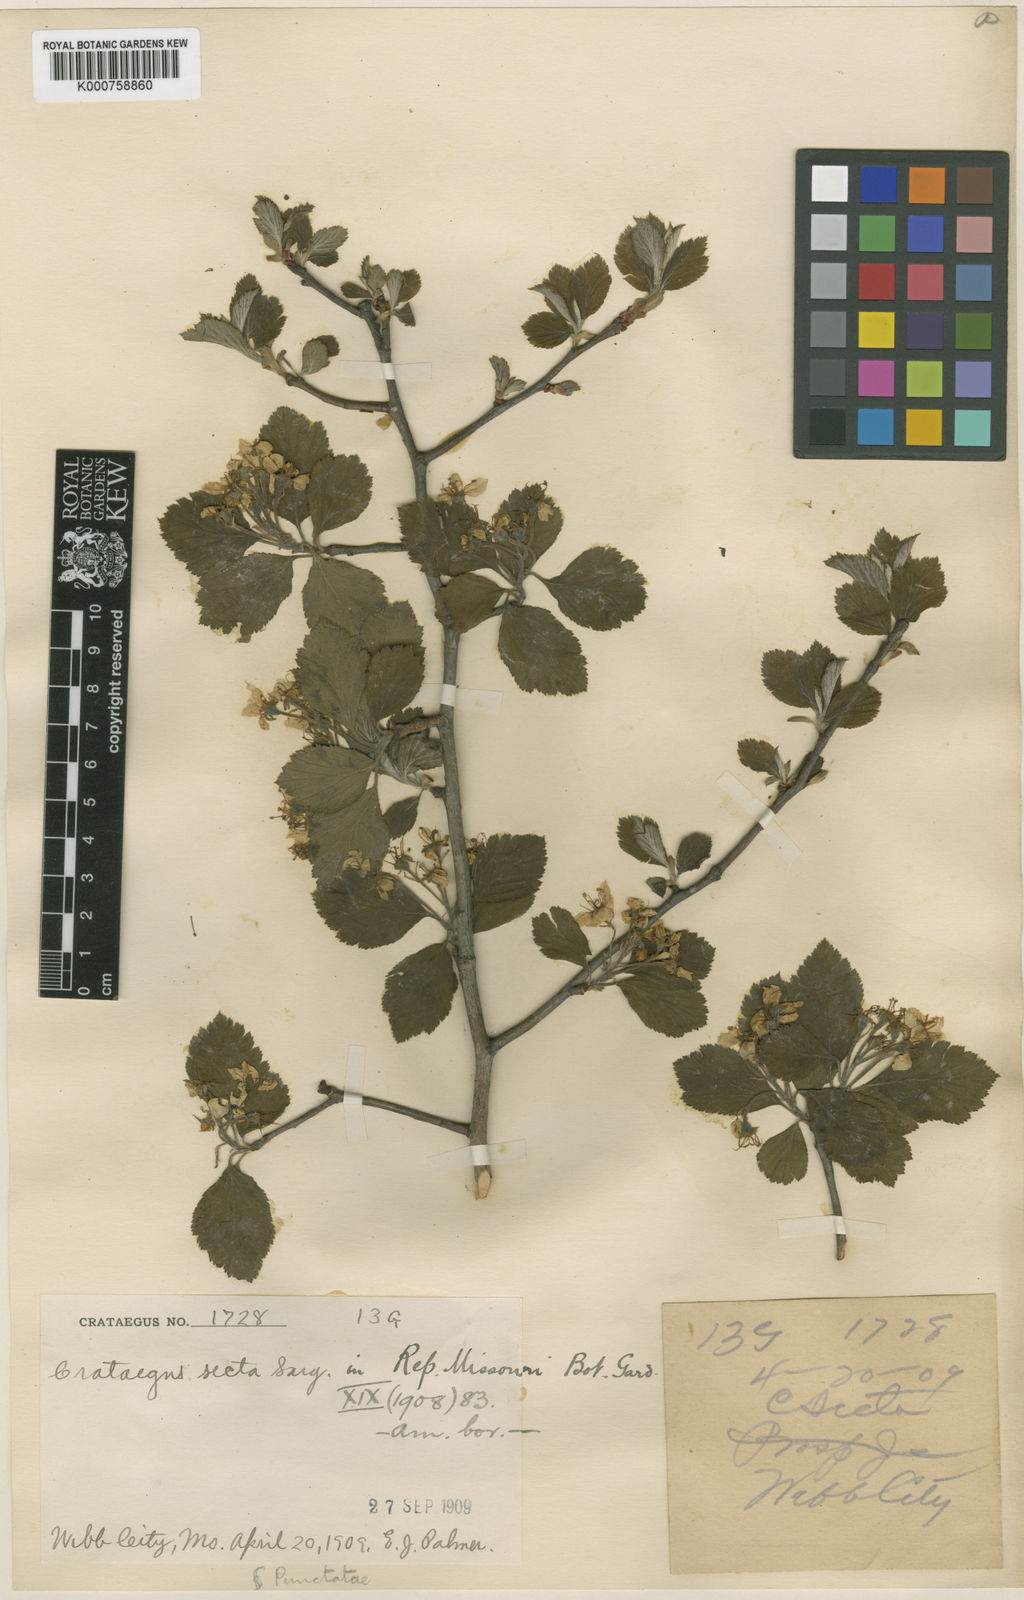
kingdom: Plantae
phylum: Tracheophyta
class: Magnoliopsida
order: Rosales
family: Rosaceae
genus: Crataegus
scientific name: Crataegus punctata
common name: Dotted hawthorn
